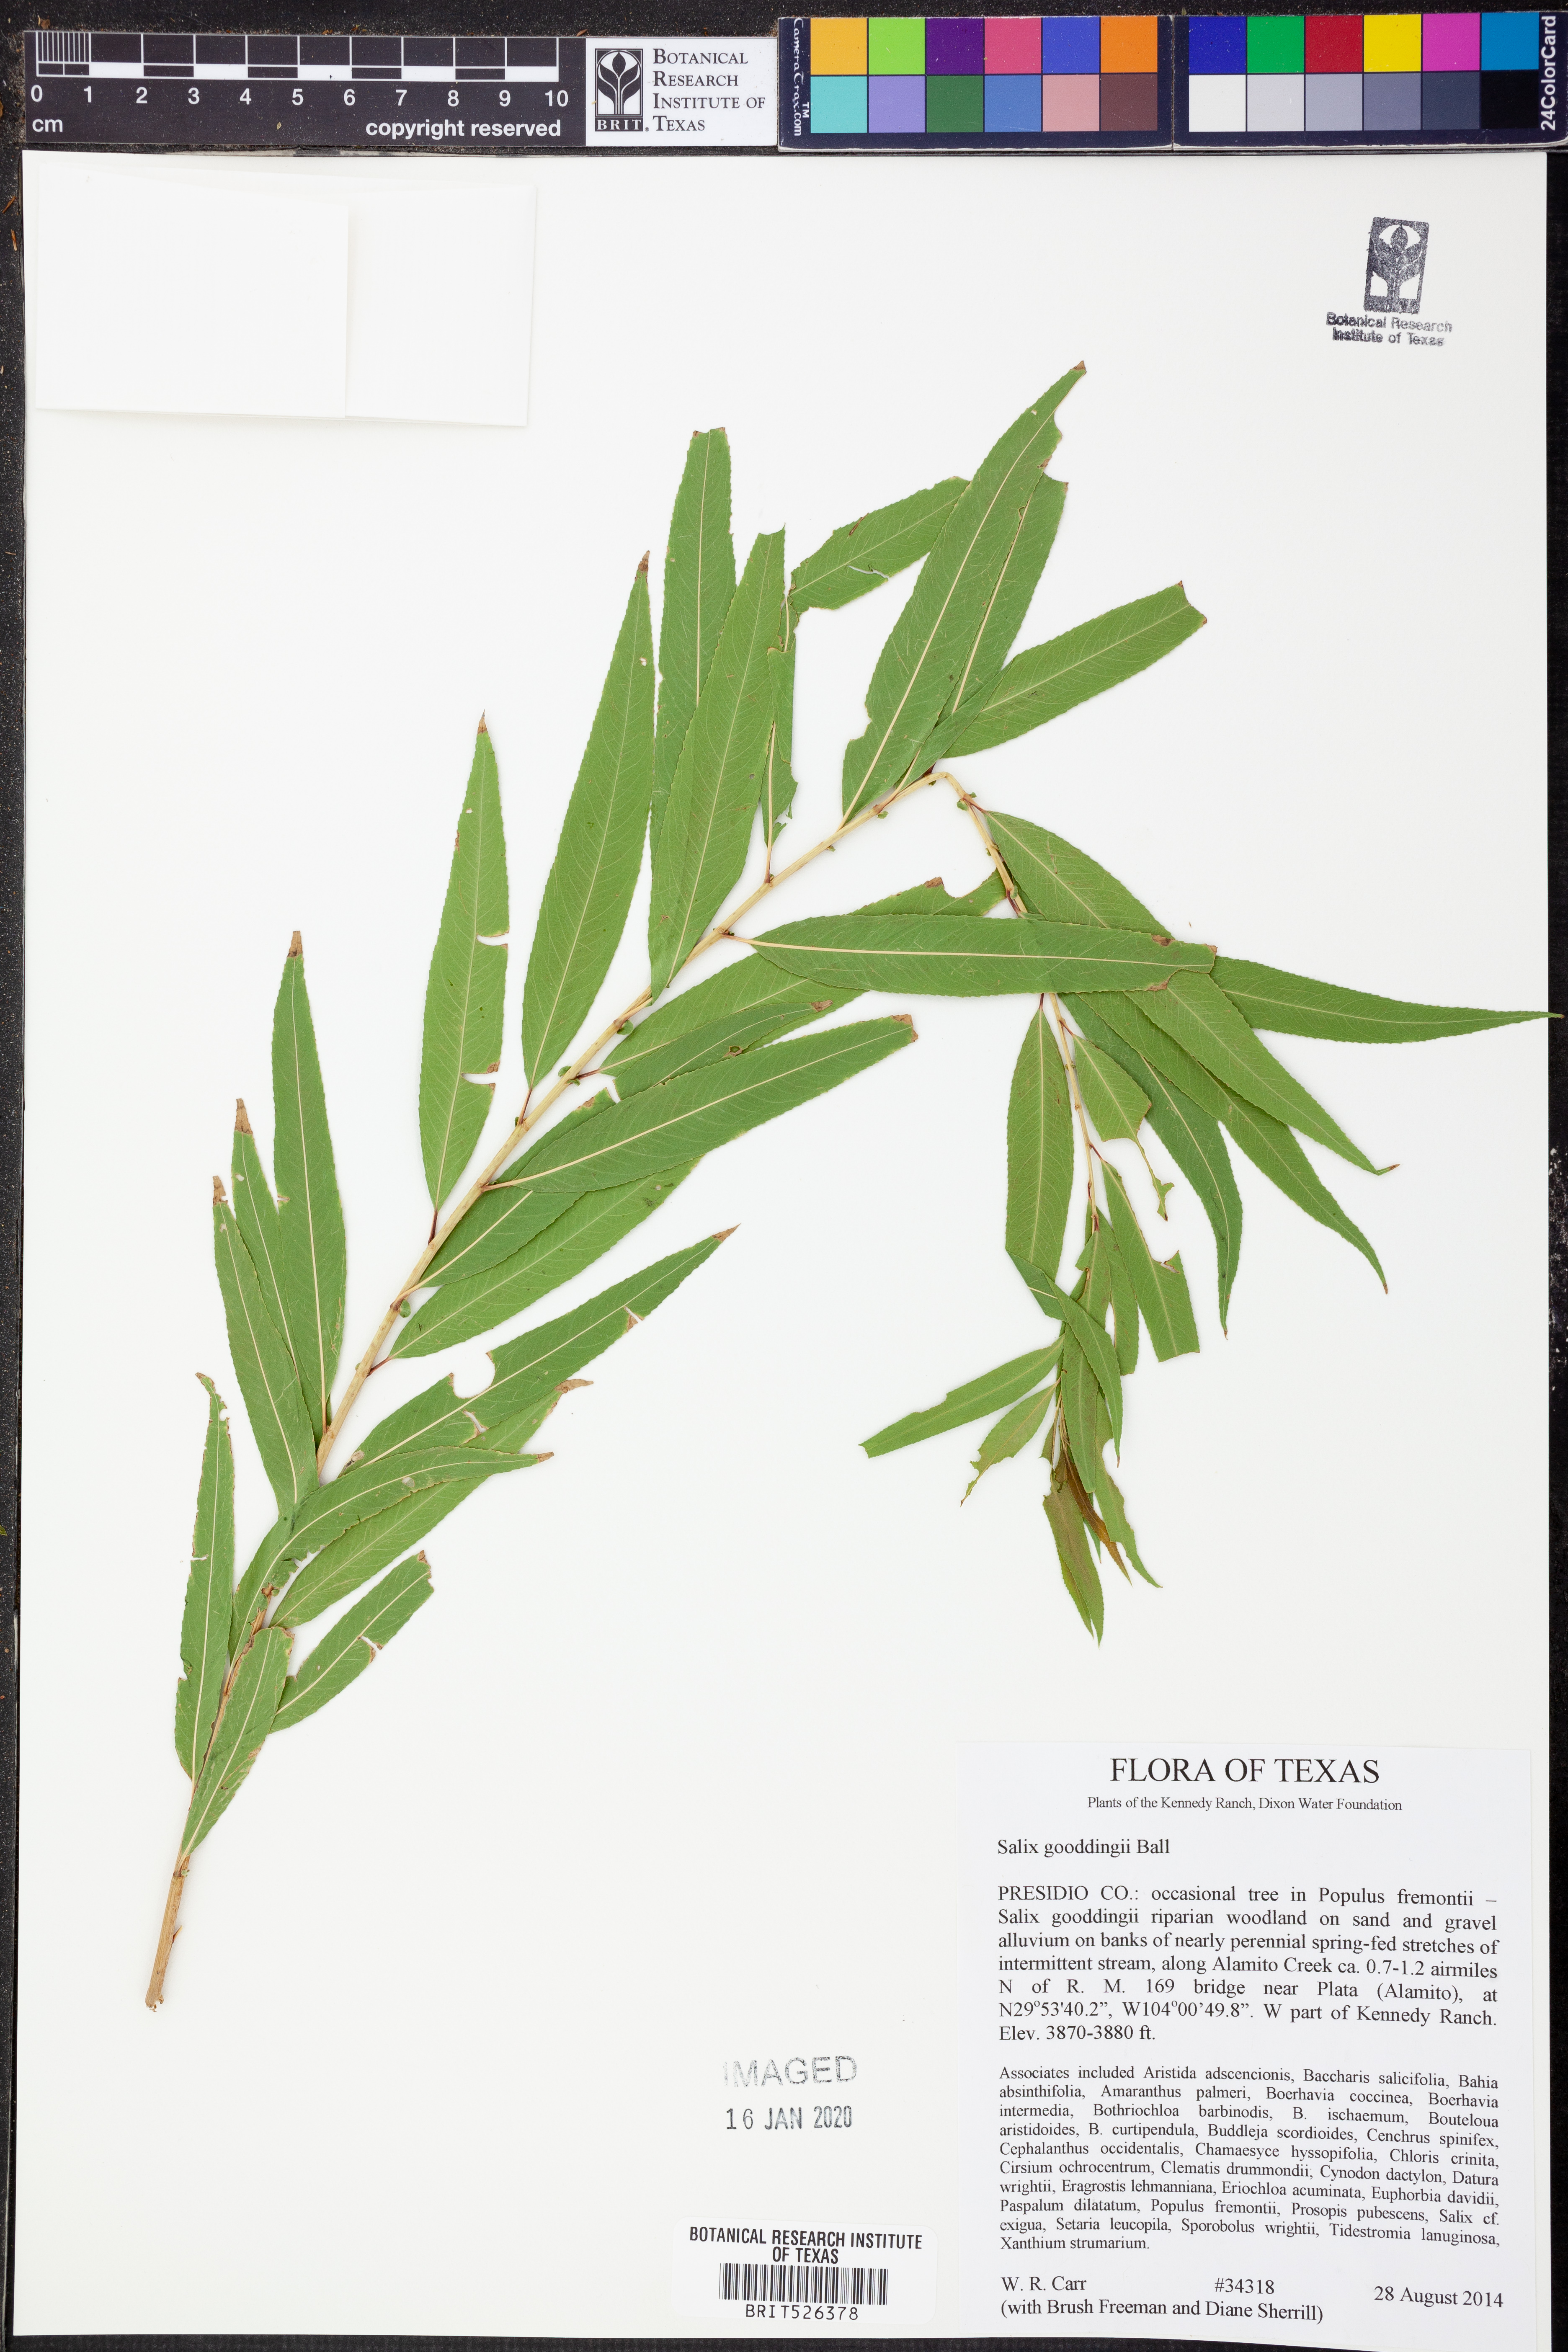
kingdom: Plantae
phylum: Tracheophyta
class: Magnoliopsida
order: Malpighiales
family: Salicaceae
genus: Salix
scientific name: Salix gooddingii
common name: Goodding's willow
